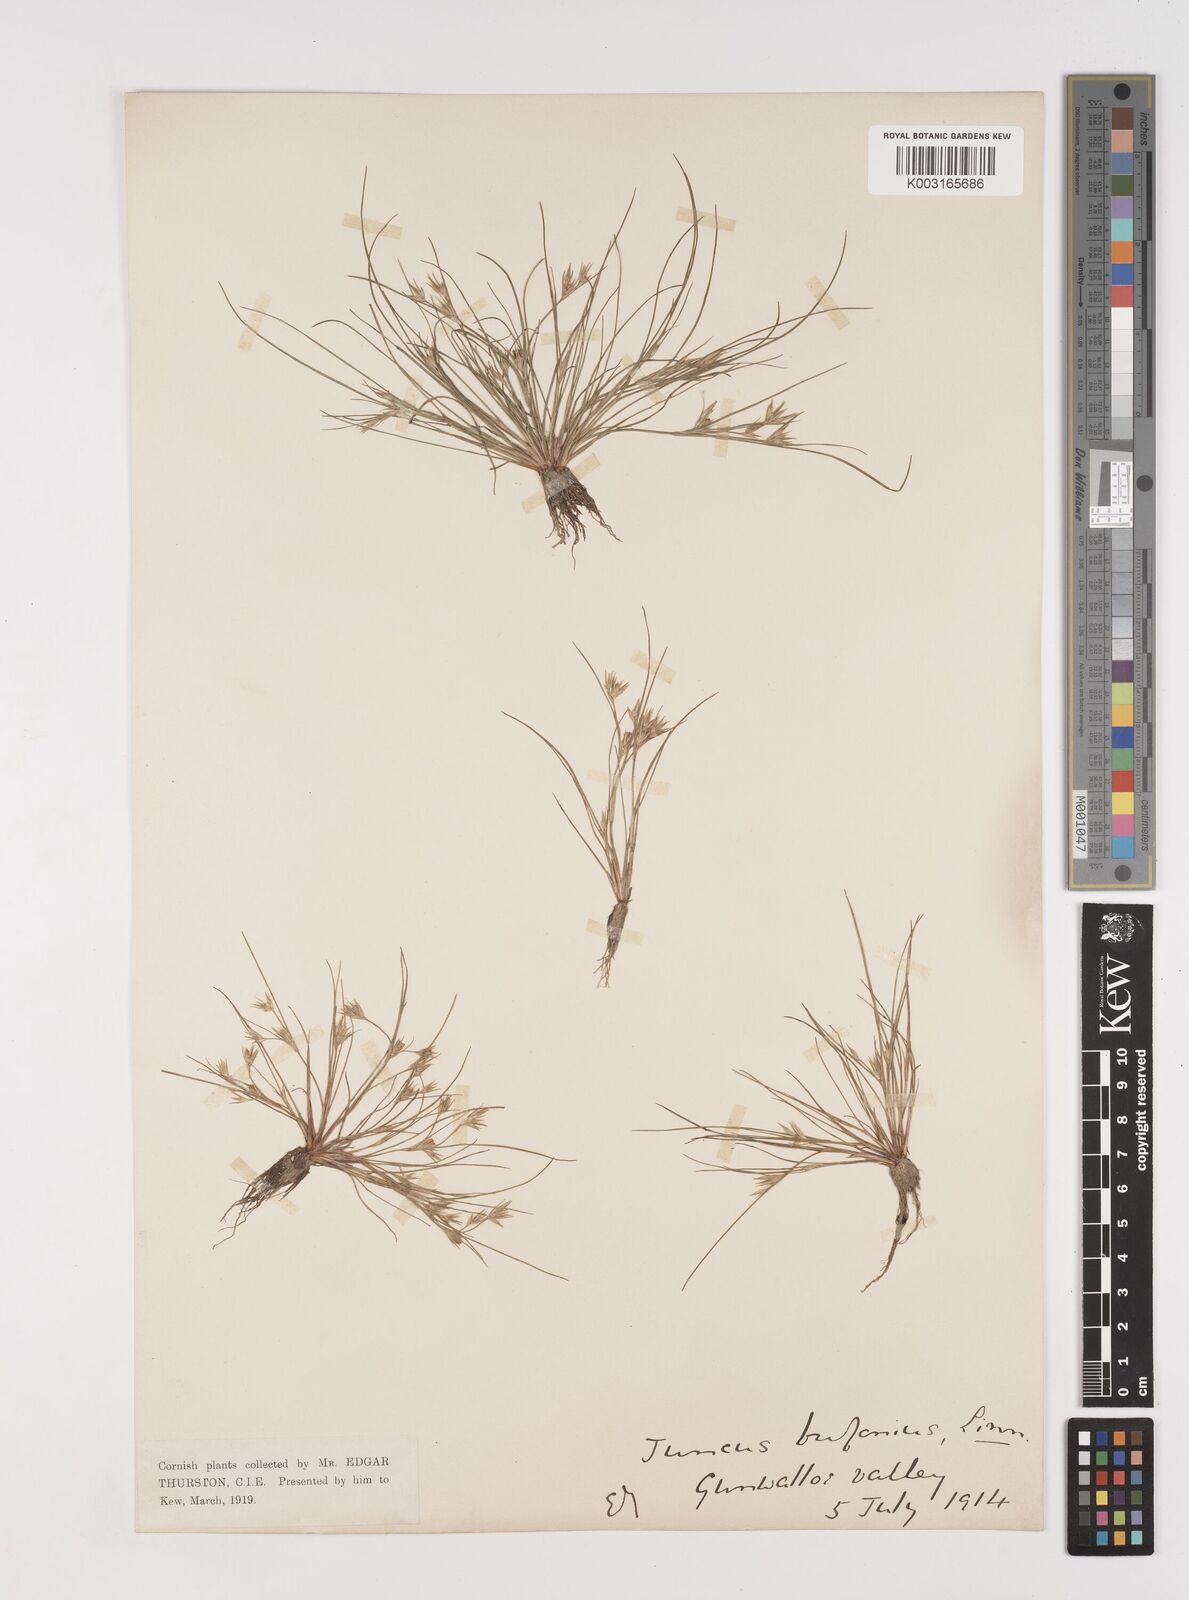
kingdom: Plantae
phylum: Tracheophyta
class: Liliopsida
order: Poales
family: Juncaceae
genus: Juncus
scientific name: Juncus bufonius
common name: Toad rush
